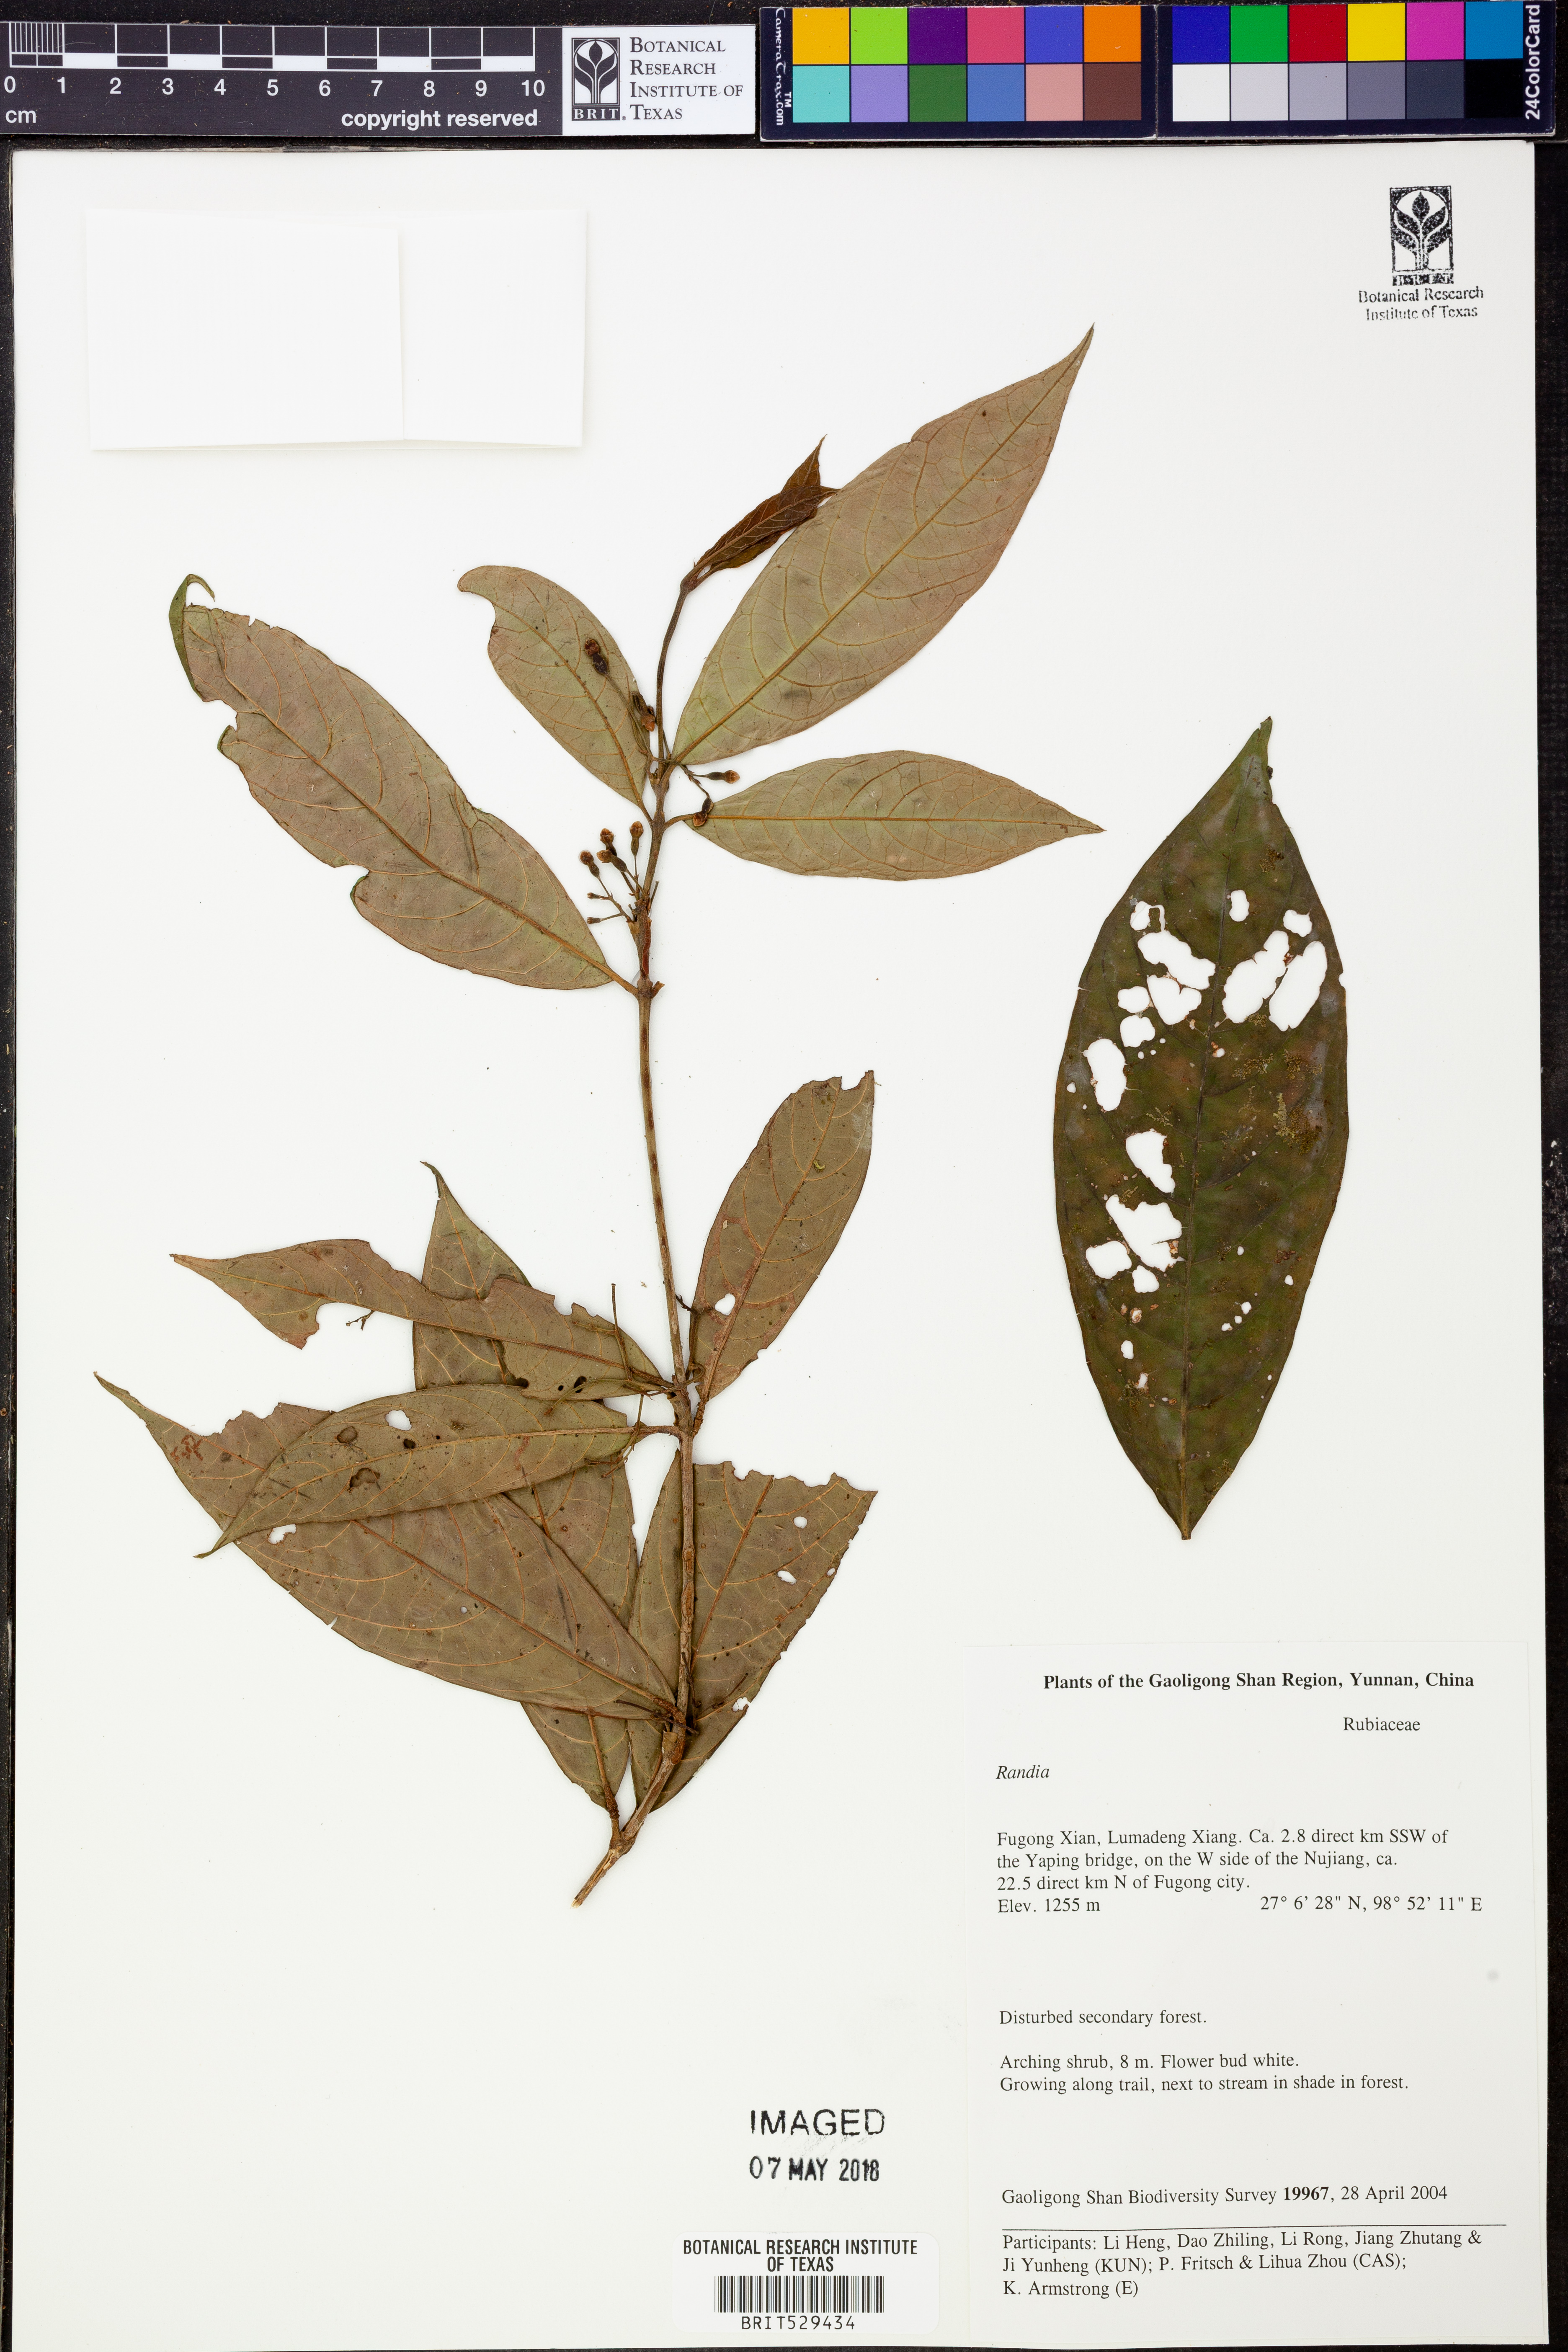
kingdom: Plantae
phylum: Tracheophyta
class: Magnoliopsida
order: Gentianales
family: Rubiaceae
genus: Randia
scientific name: Randia
